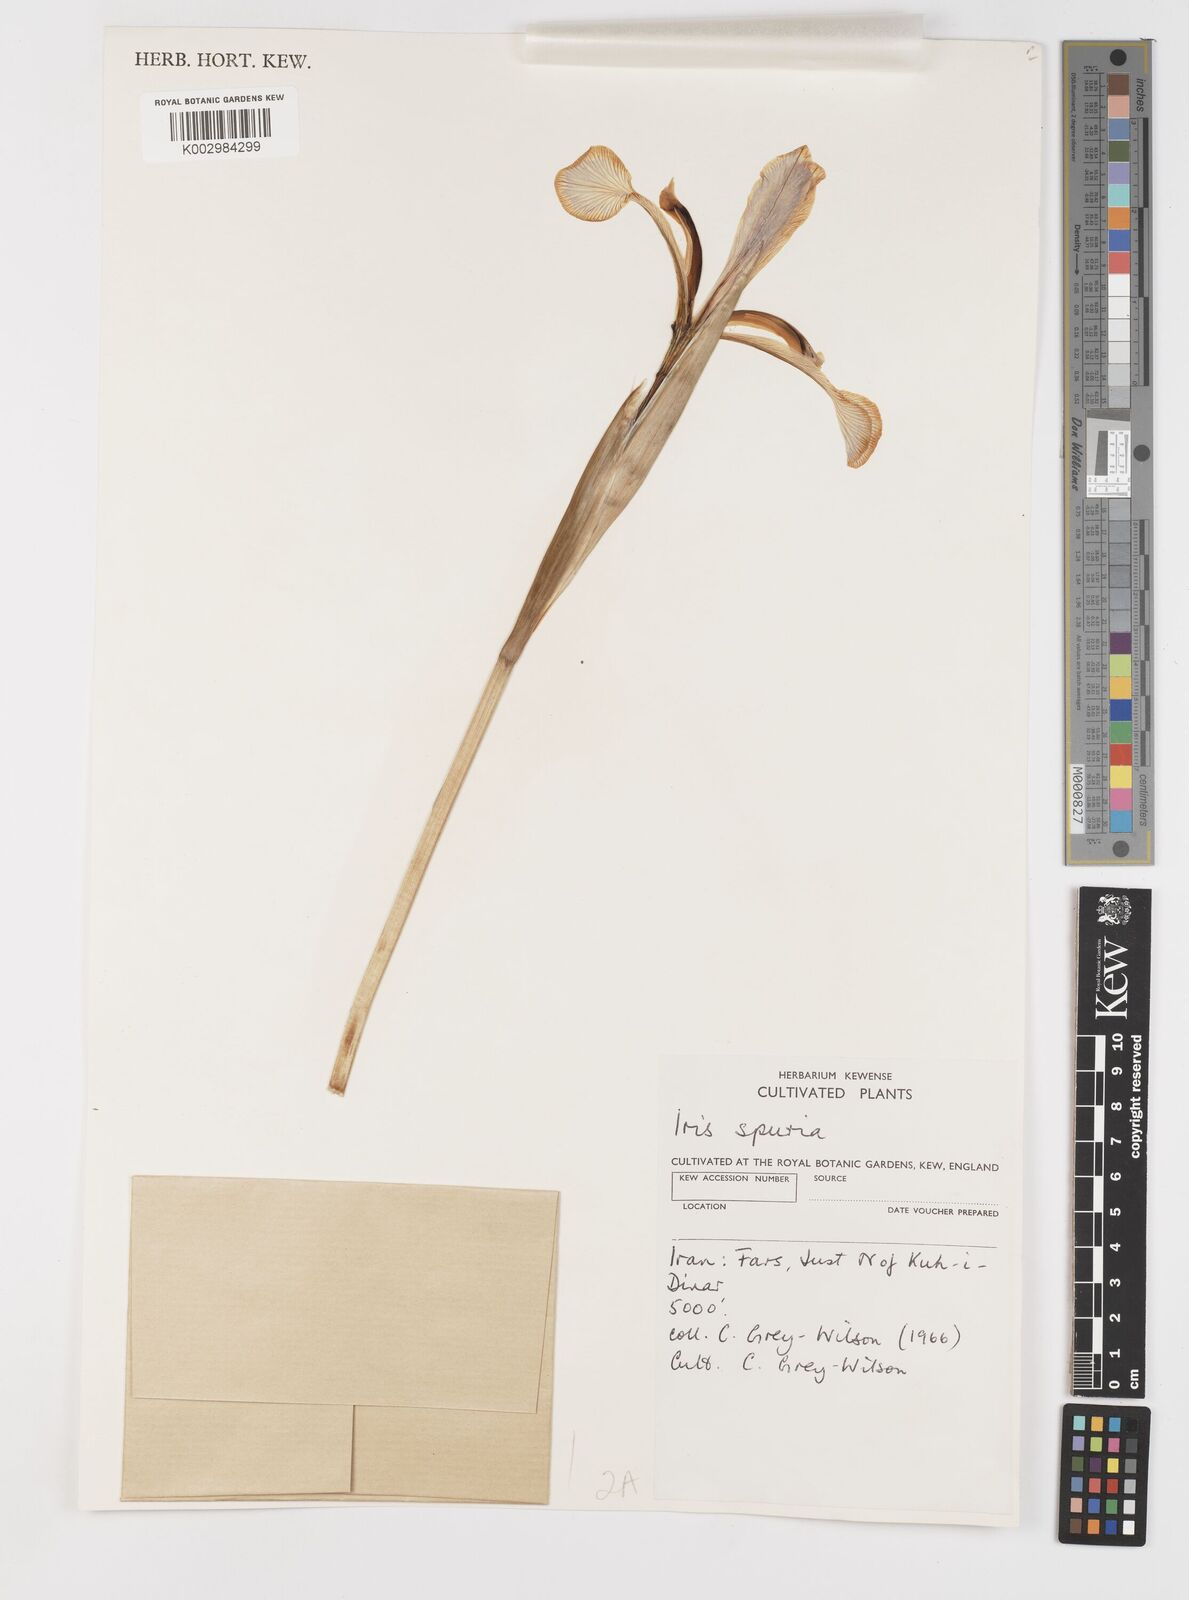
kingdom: Plantae
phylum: Tracheophyta
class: Liliopsida
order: Asparagales
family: Iridaceae
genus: Iris
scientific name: Iris spuria
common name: Blue iris
